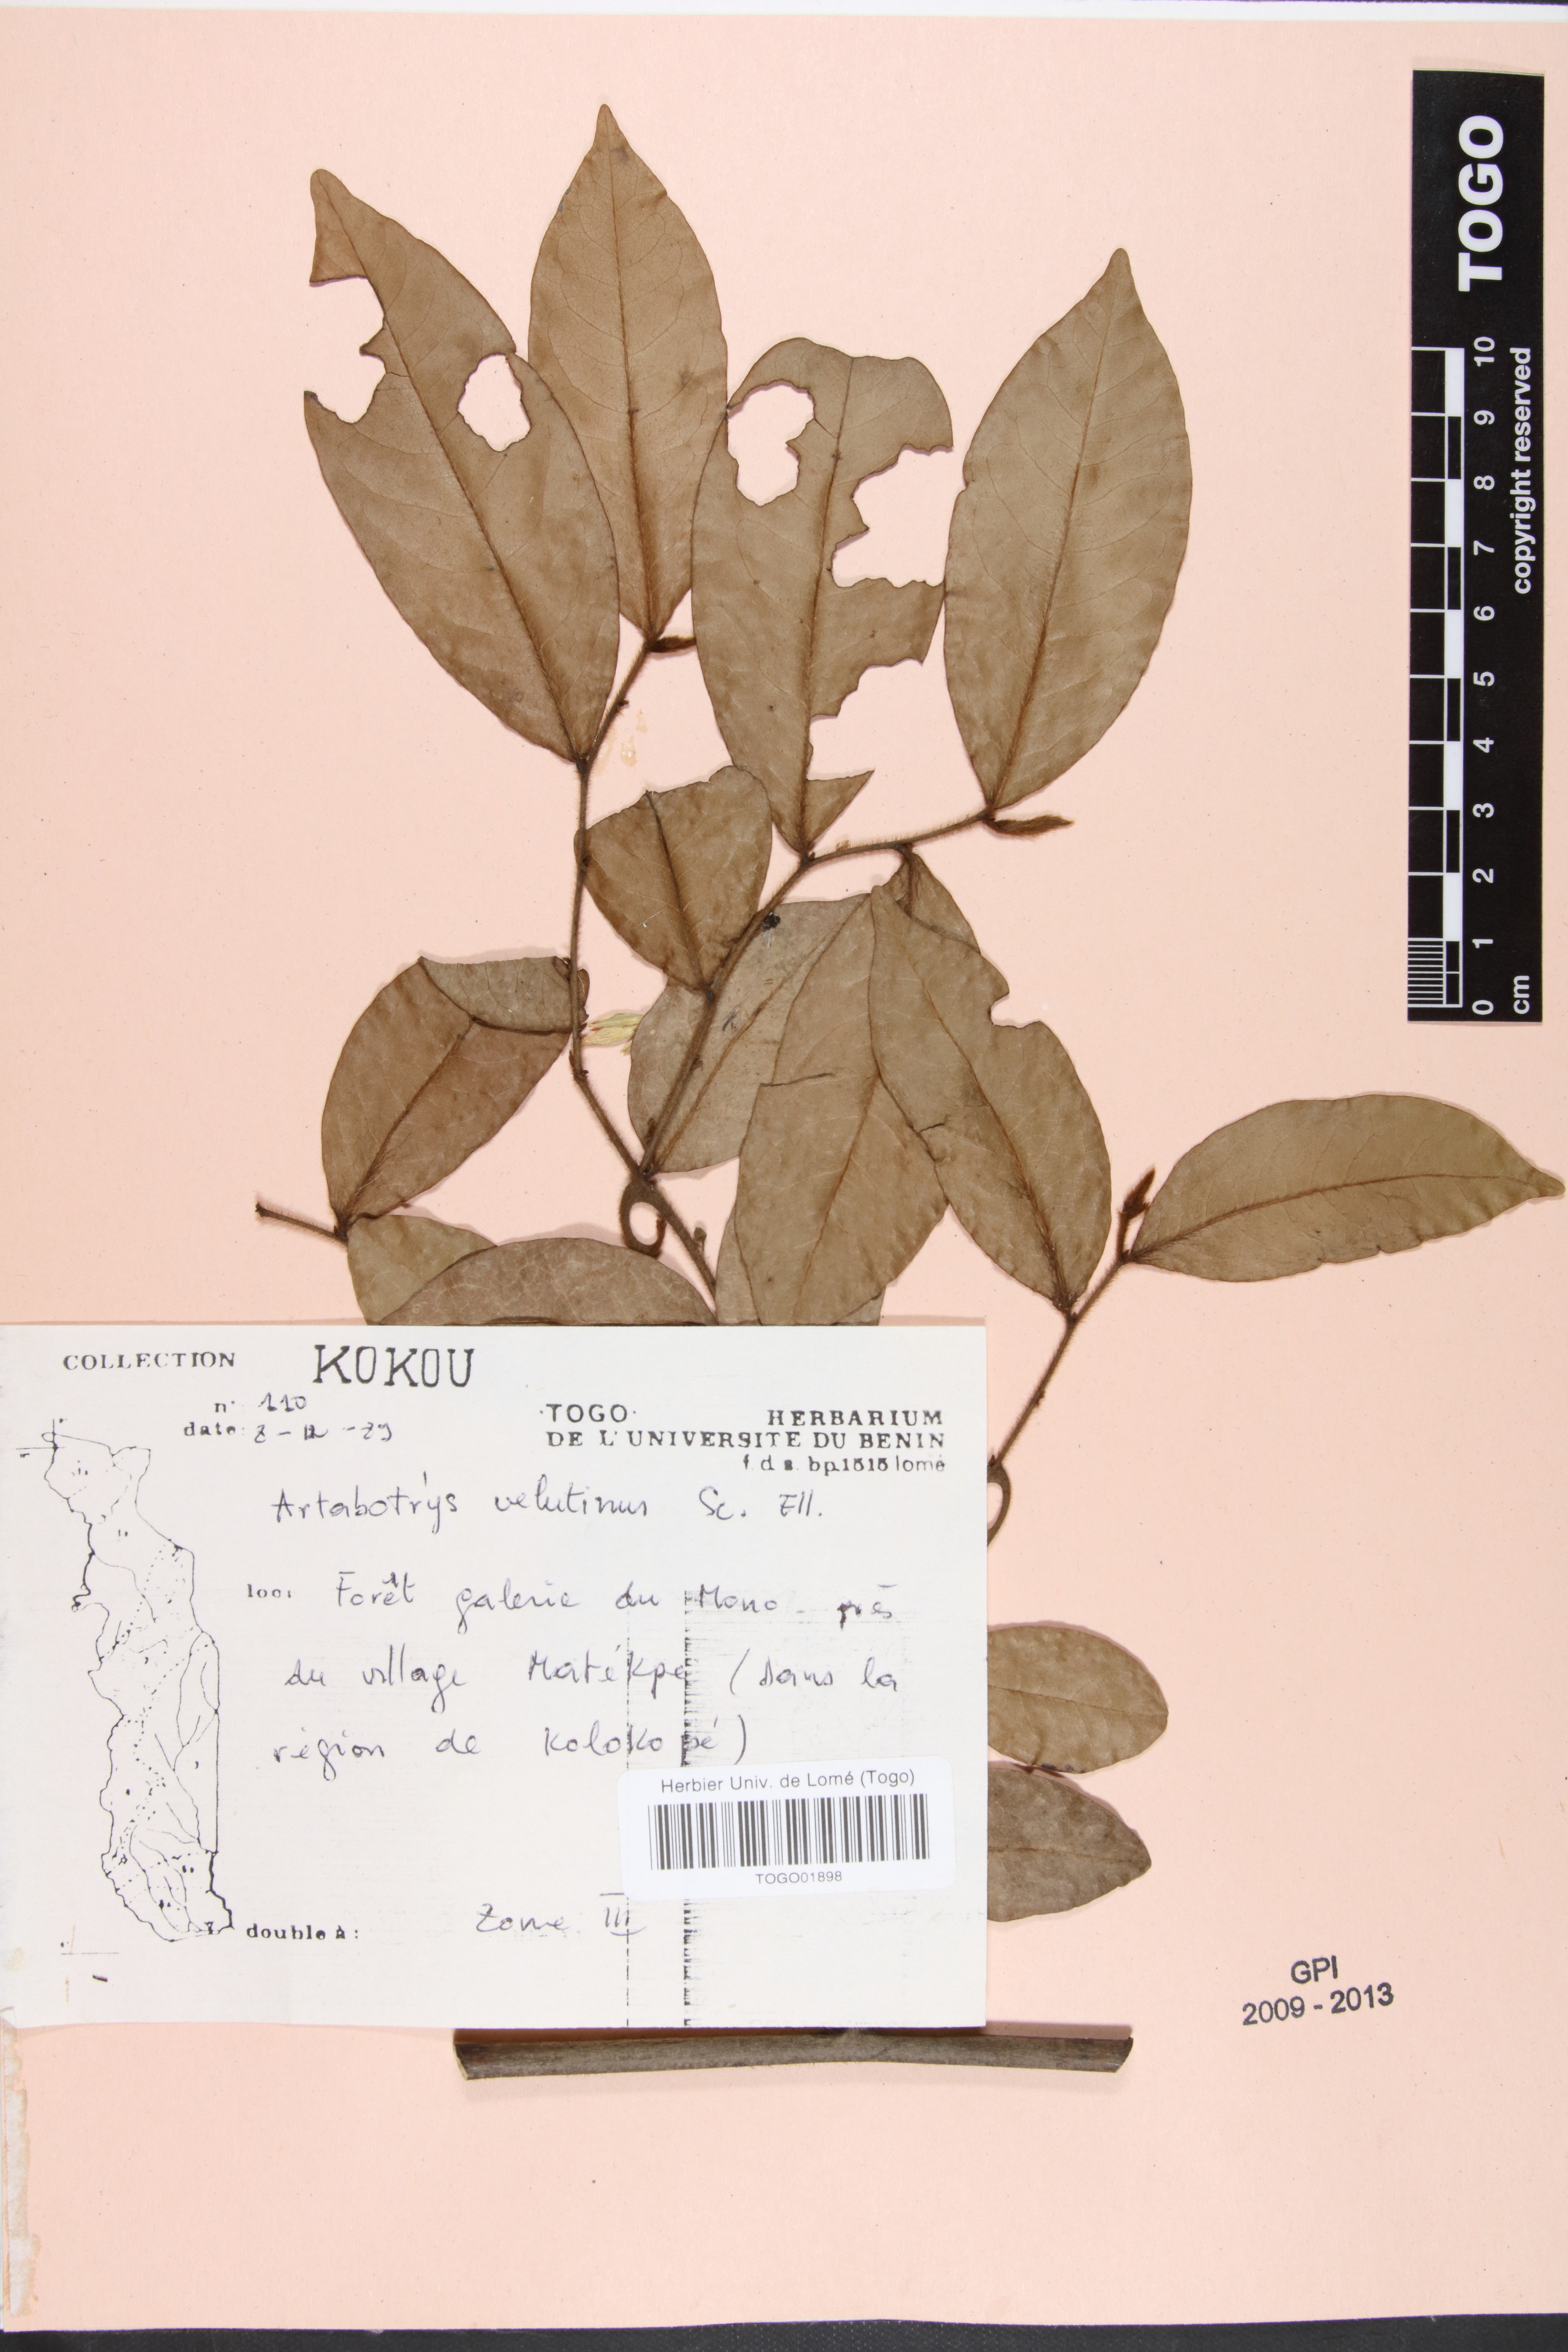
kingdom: Plantae
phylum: Tracheophyta
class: Magnoliopsida
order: Magnoliales
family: Annonaceae
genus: Artabotrys
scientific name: Artabotrys velutinus
